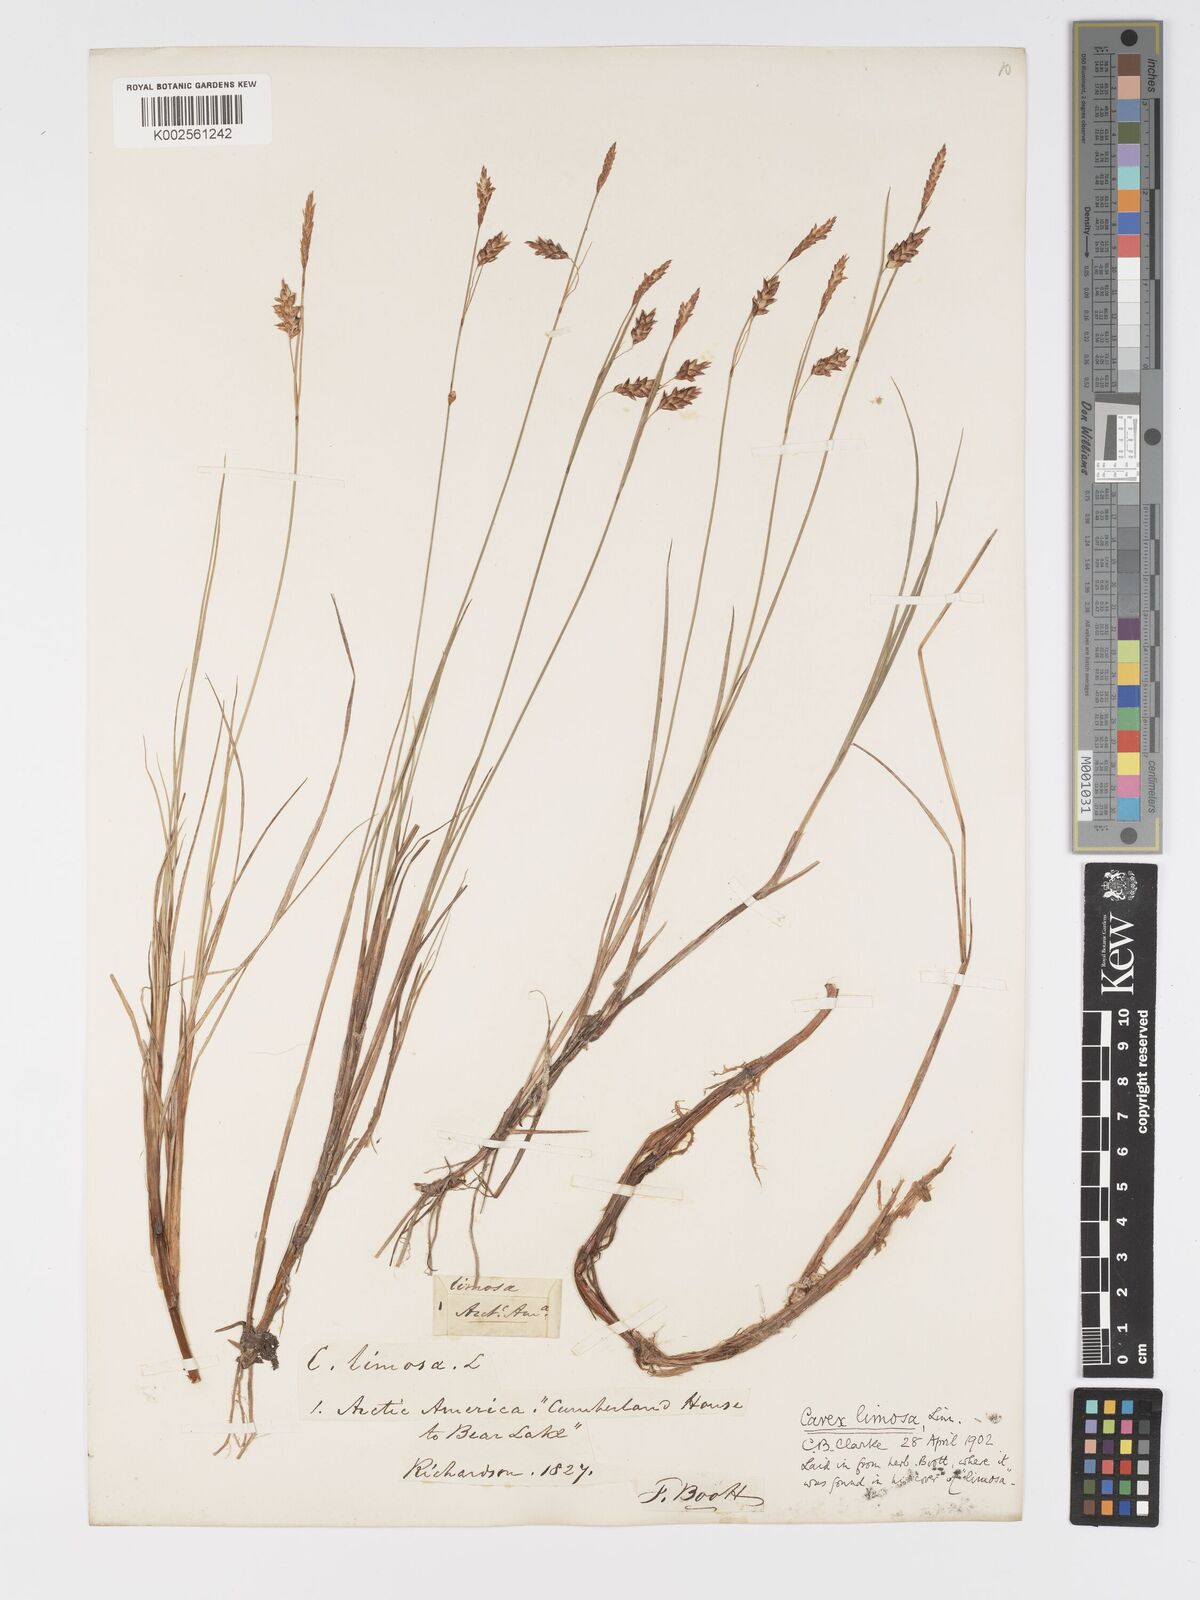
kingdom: Plantae
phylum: Tracheophyta
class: Liliopsida
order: Poales
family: Cyperaceae
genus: Carex
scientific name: Carex limosa
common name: Bog sedge
